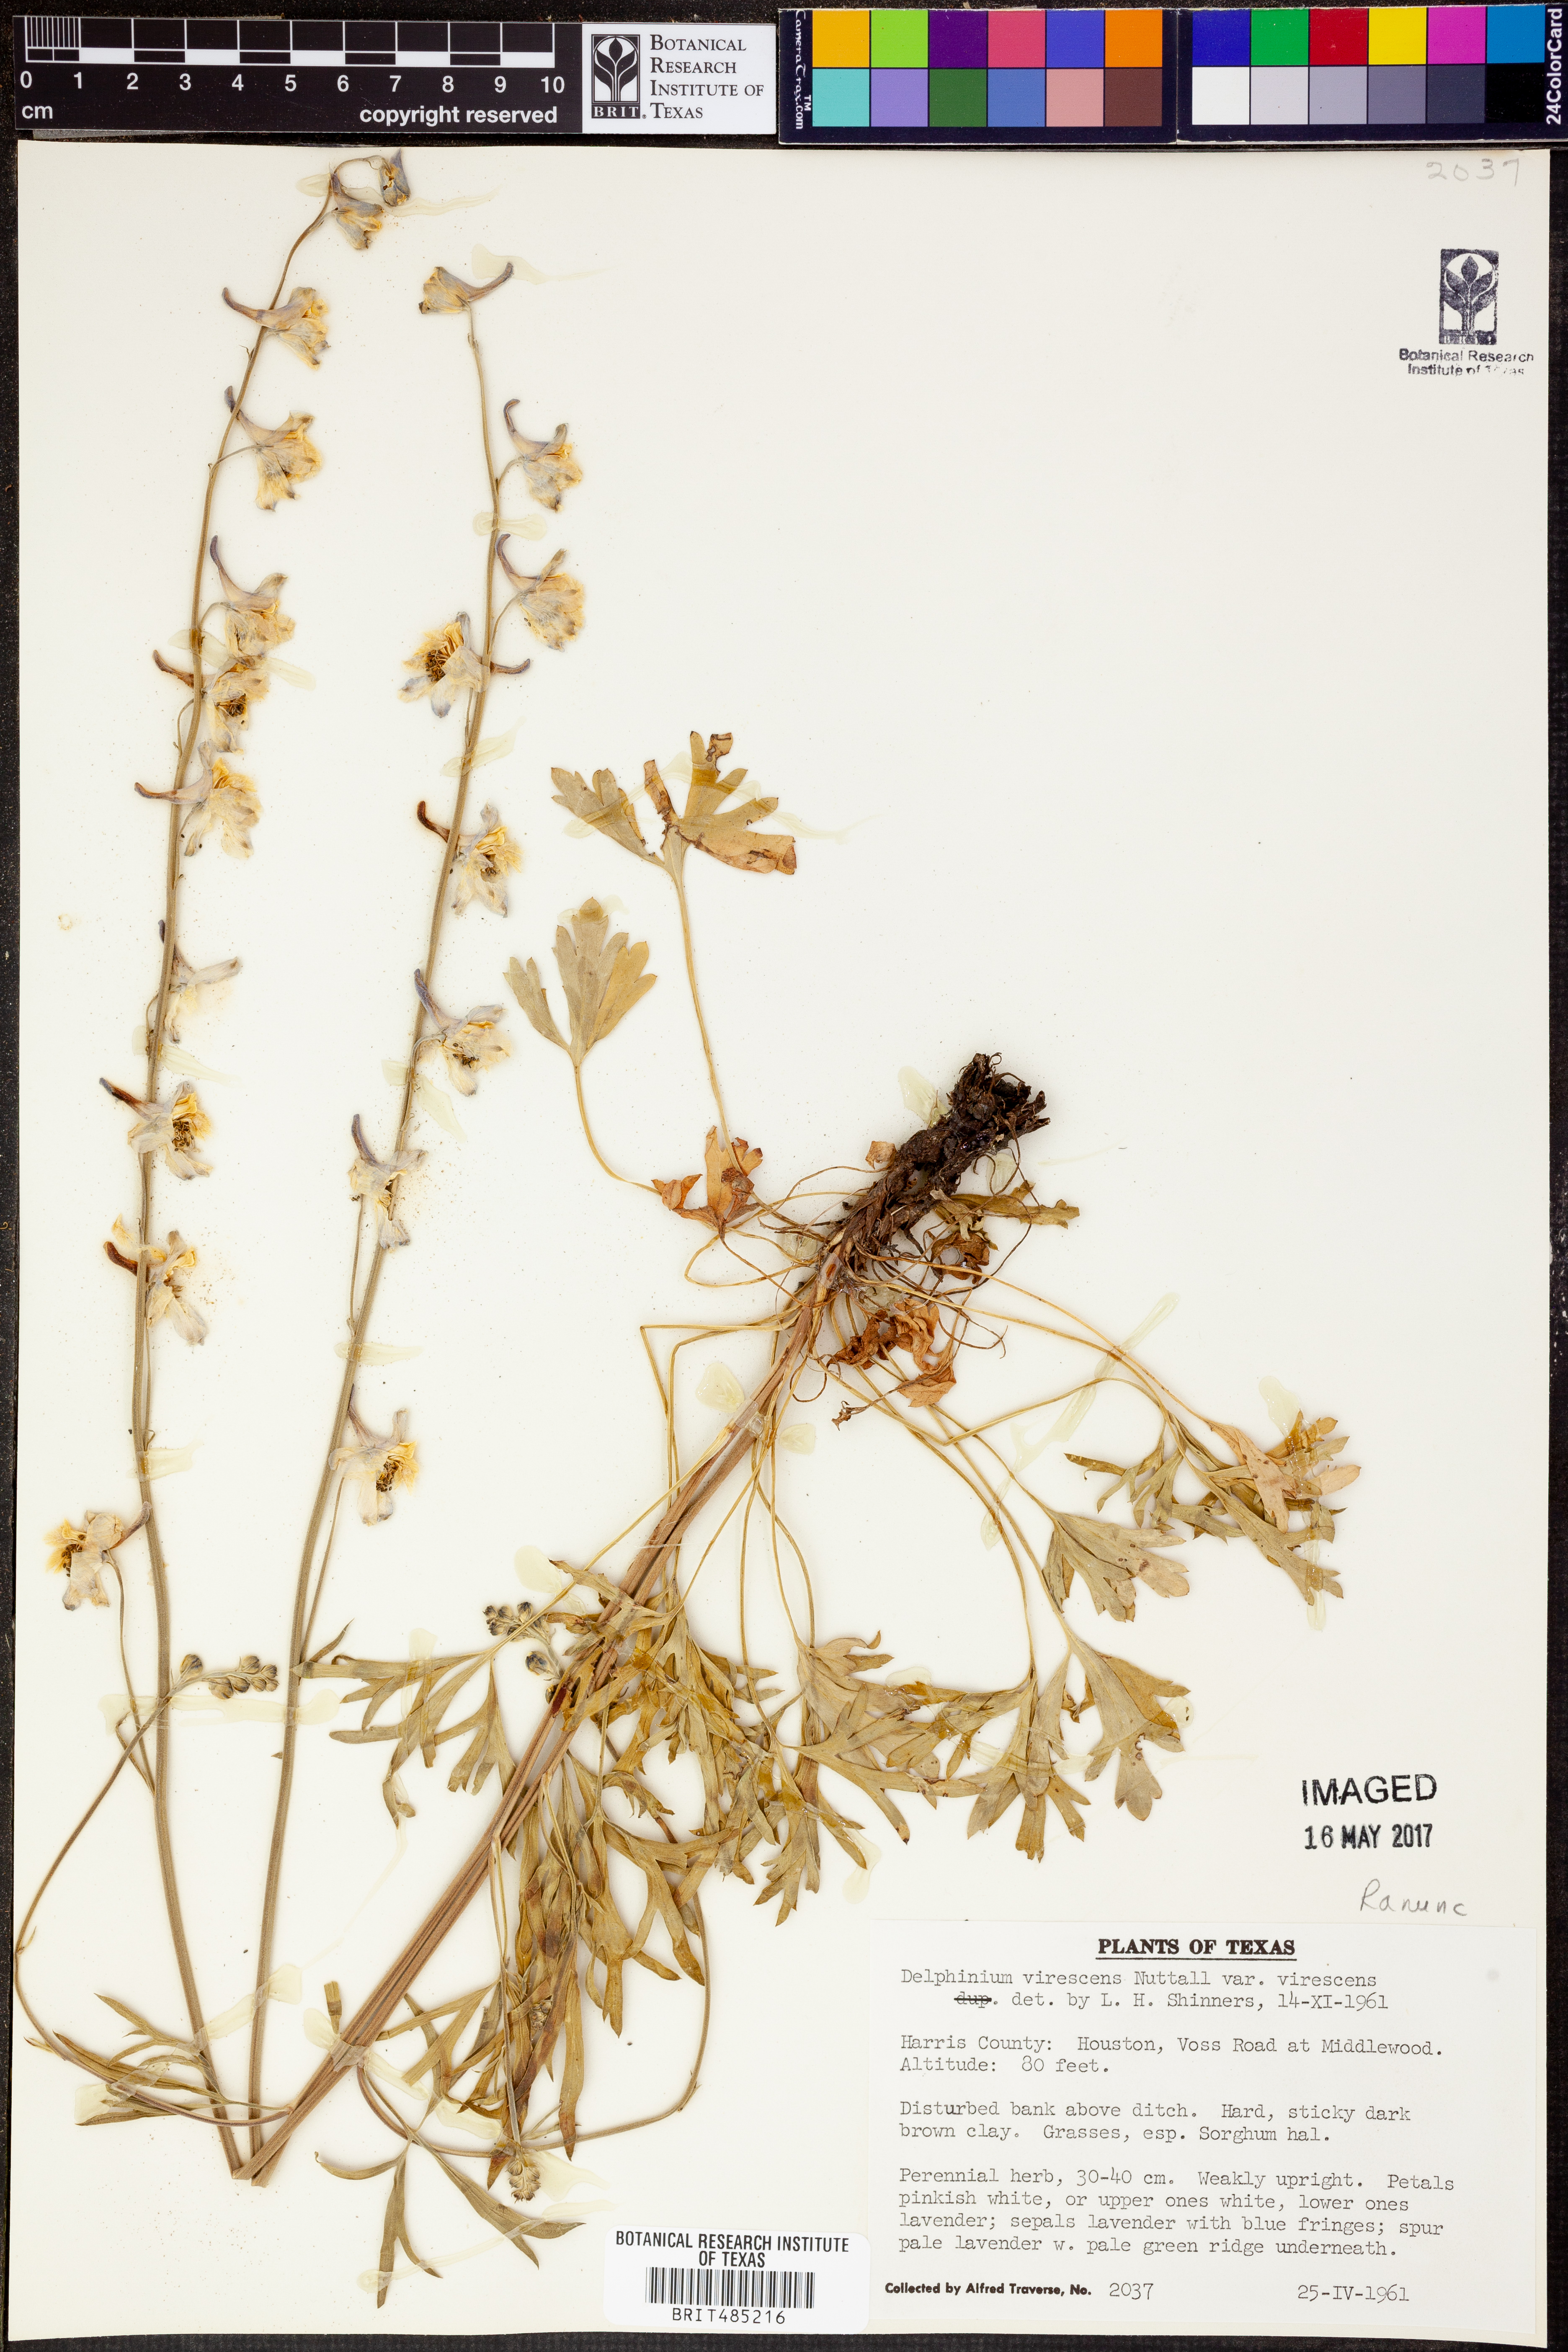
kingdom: Plantae
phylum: Tracheophyta
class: Magnoliopsida
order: Ranunculales
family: Ranunculaceae
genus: Delphinium
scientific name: Delphinium carolinianum
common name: Carolina larkspur
